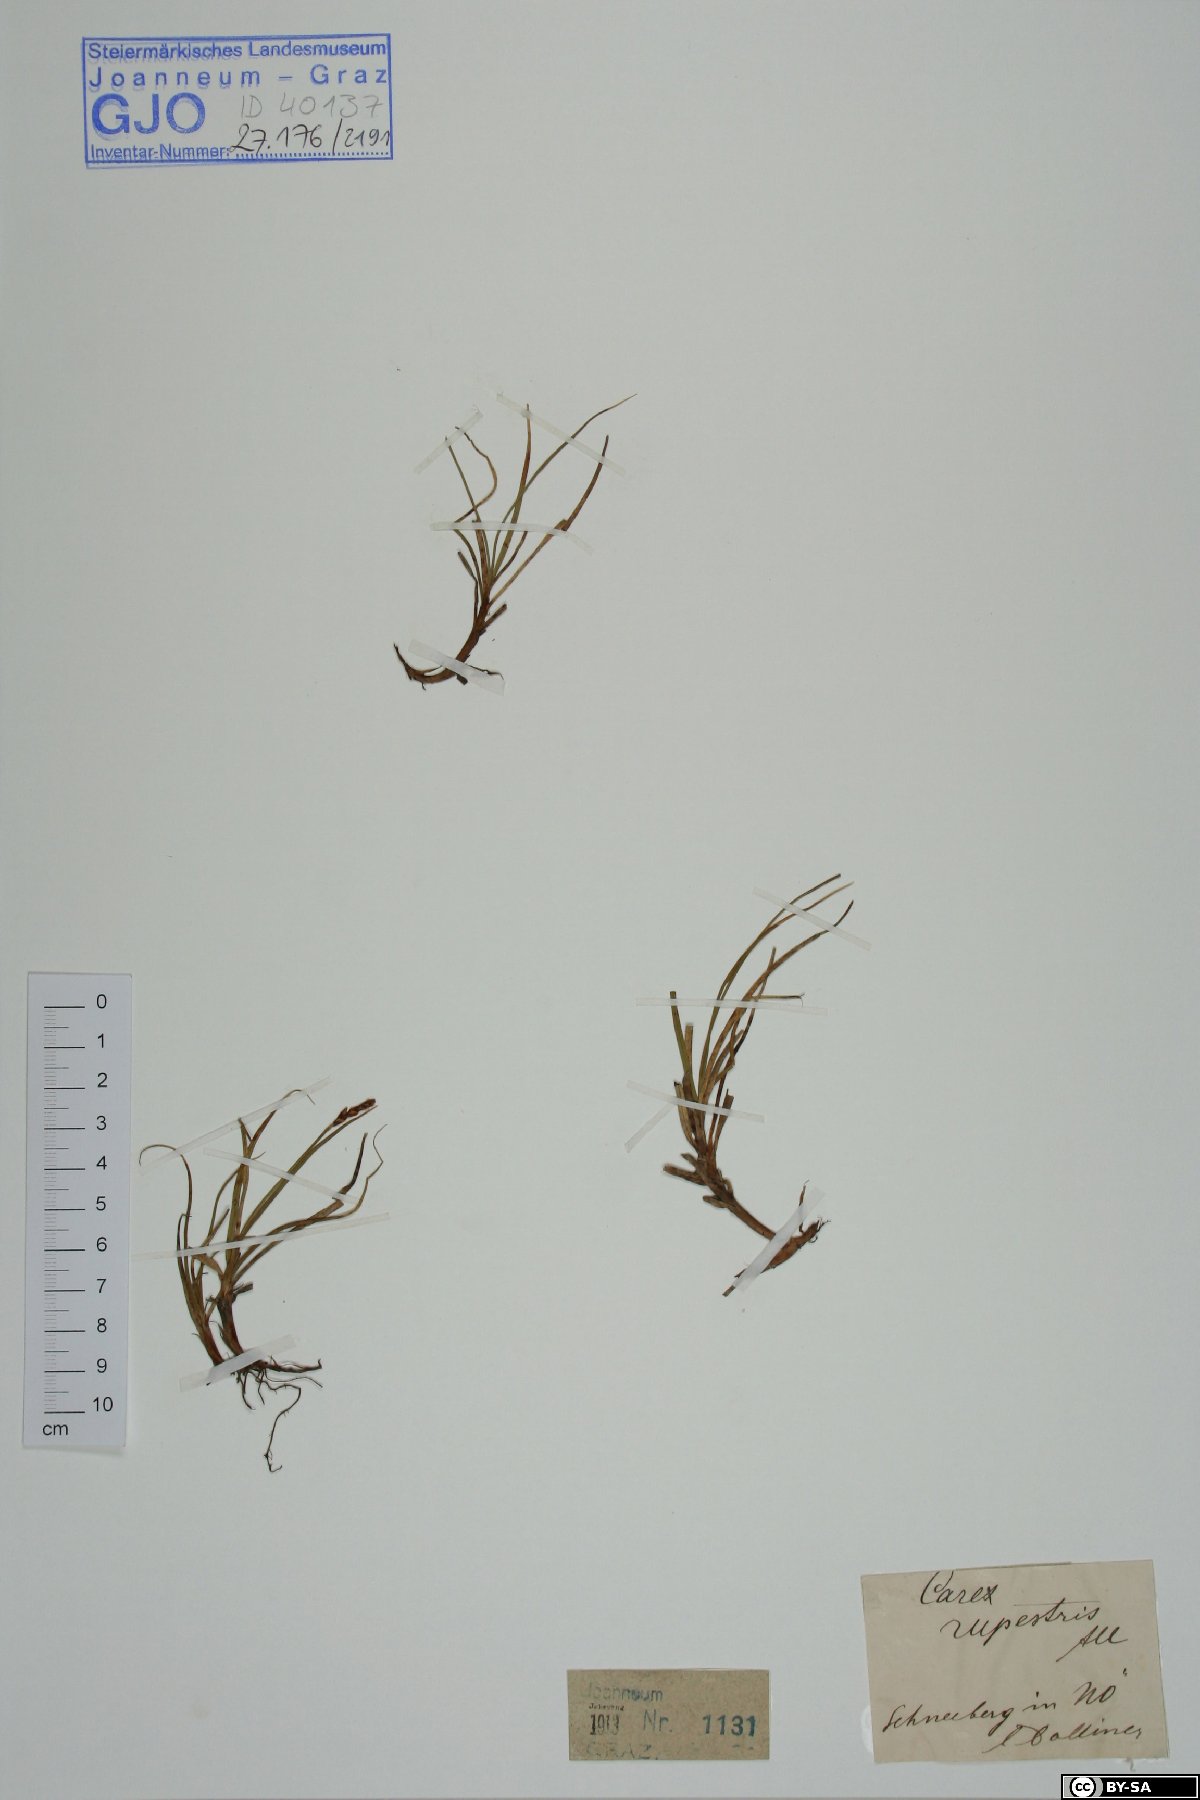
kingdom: Plantae
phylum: Tracheophyta
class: Liliopsida
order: Poales
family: Cyperaceae
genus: Carex
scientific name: Carex rupestris
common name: Rock sedge
